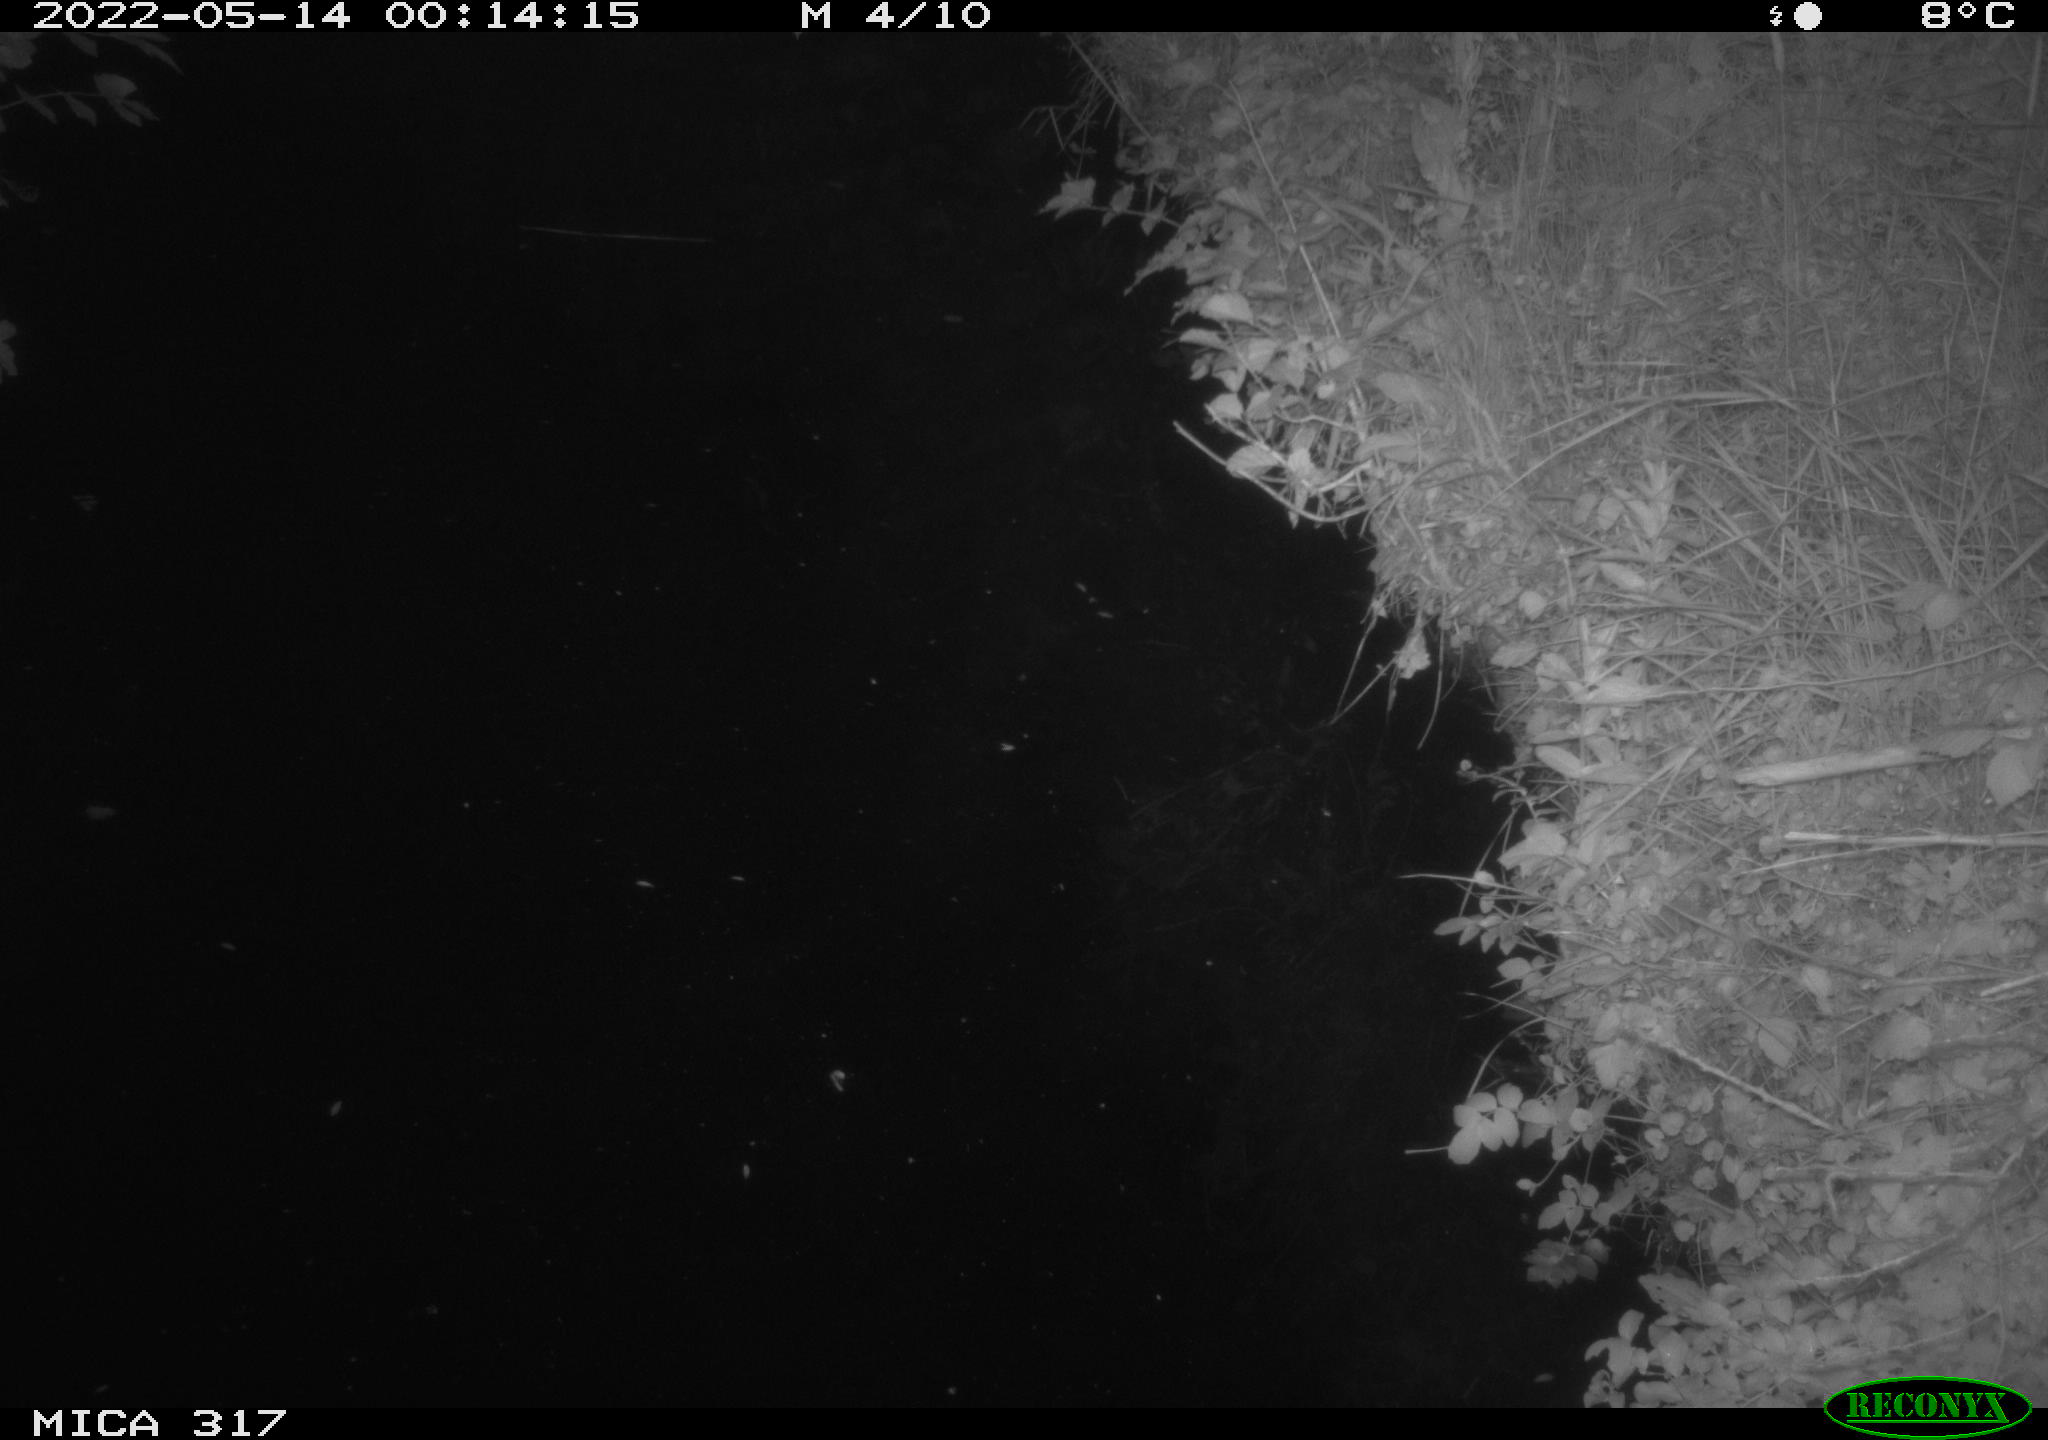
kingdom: Animalia
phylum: Chordata
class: Aves
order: Anseriformes
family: Anatidae
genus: Anas
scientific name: Anas
